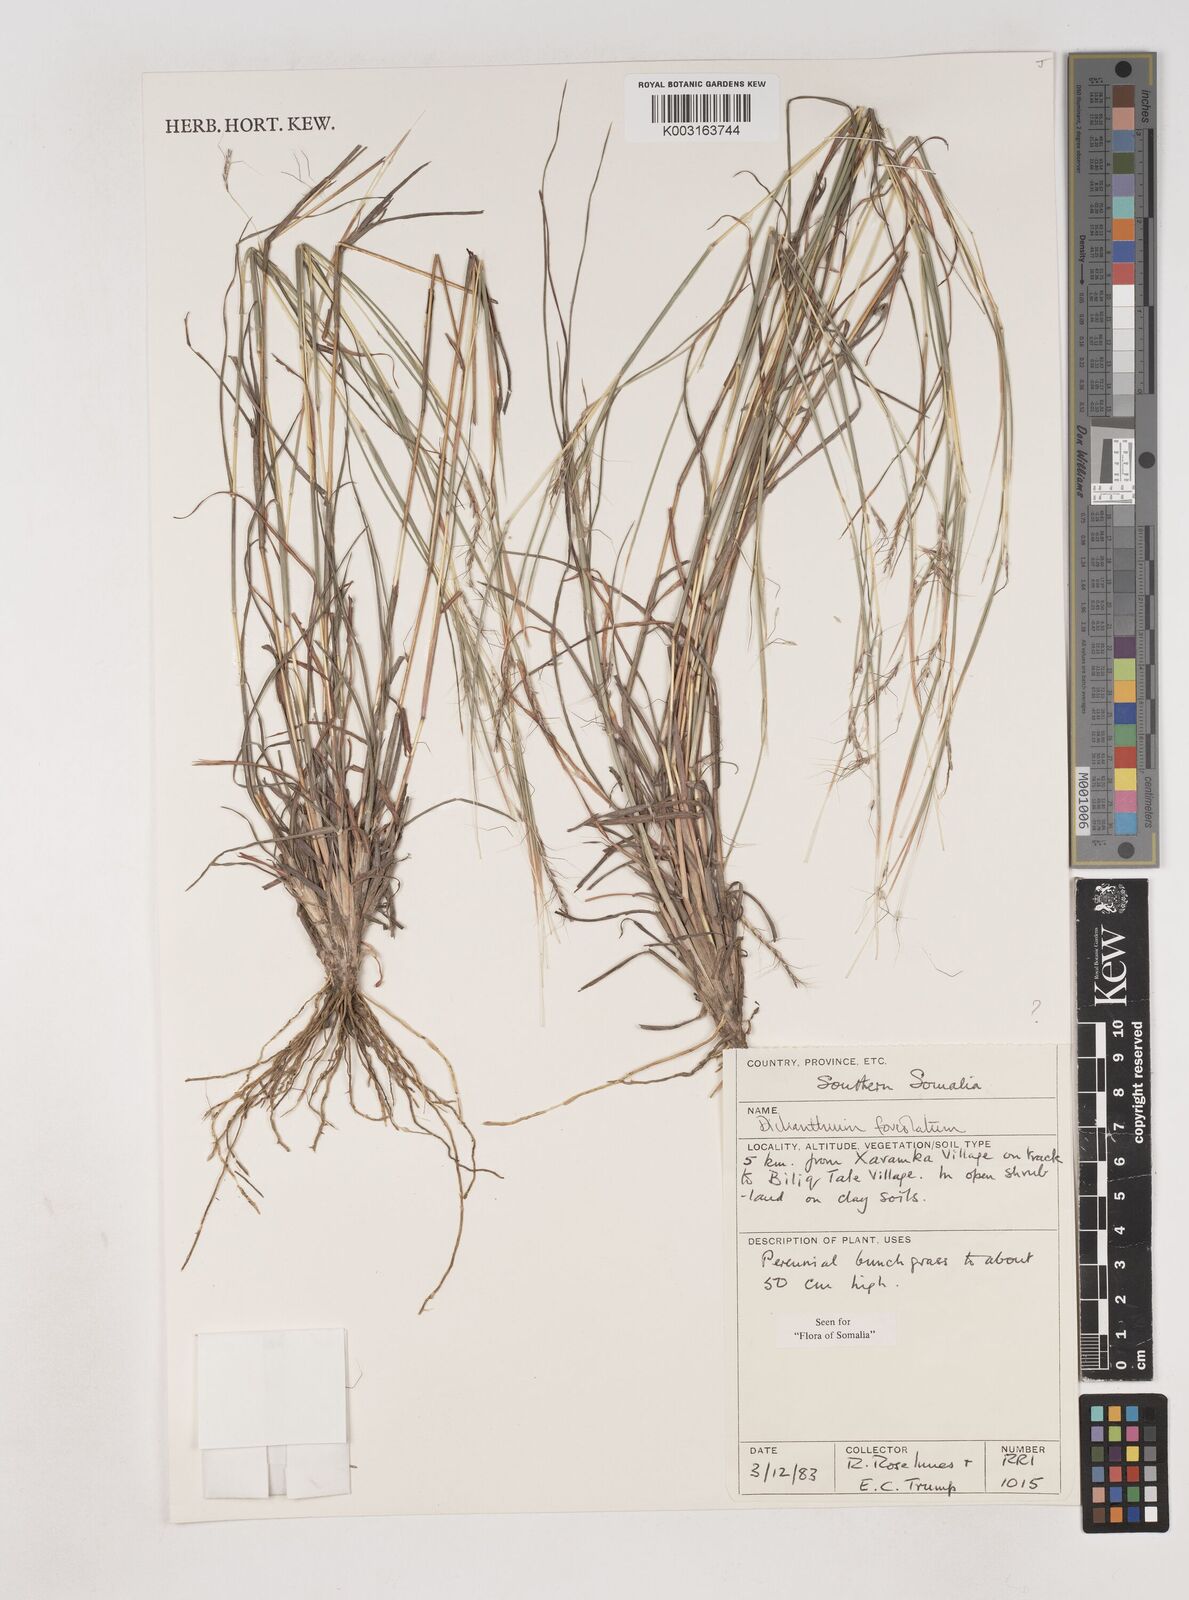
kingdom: Plantae
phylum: Tracheophyta
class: Liliopsida
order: Poales
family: Poaceae
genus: Dichanthium
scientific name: Dichanthium foveolatum
